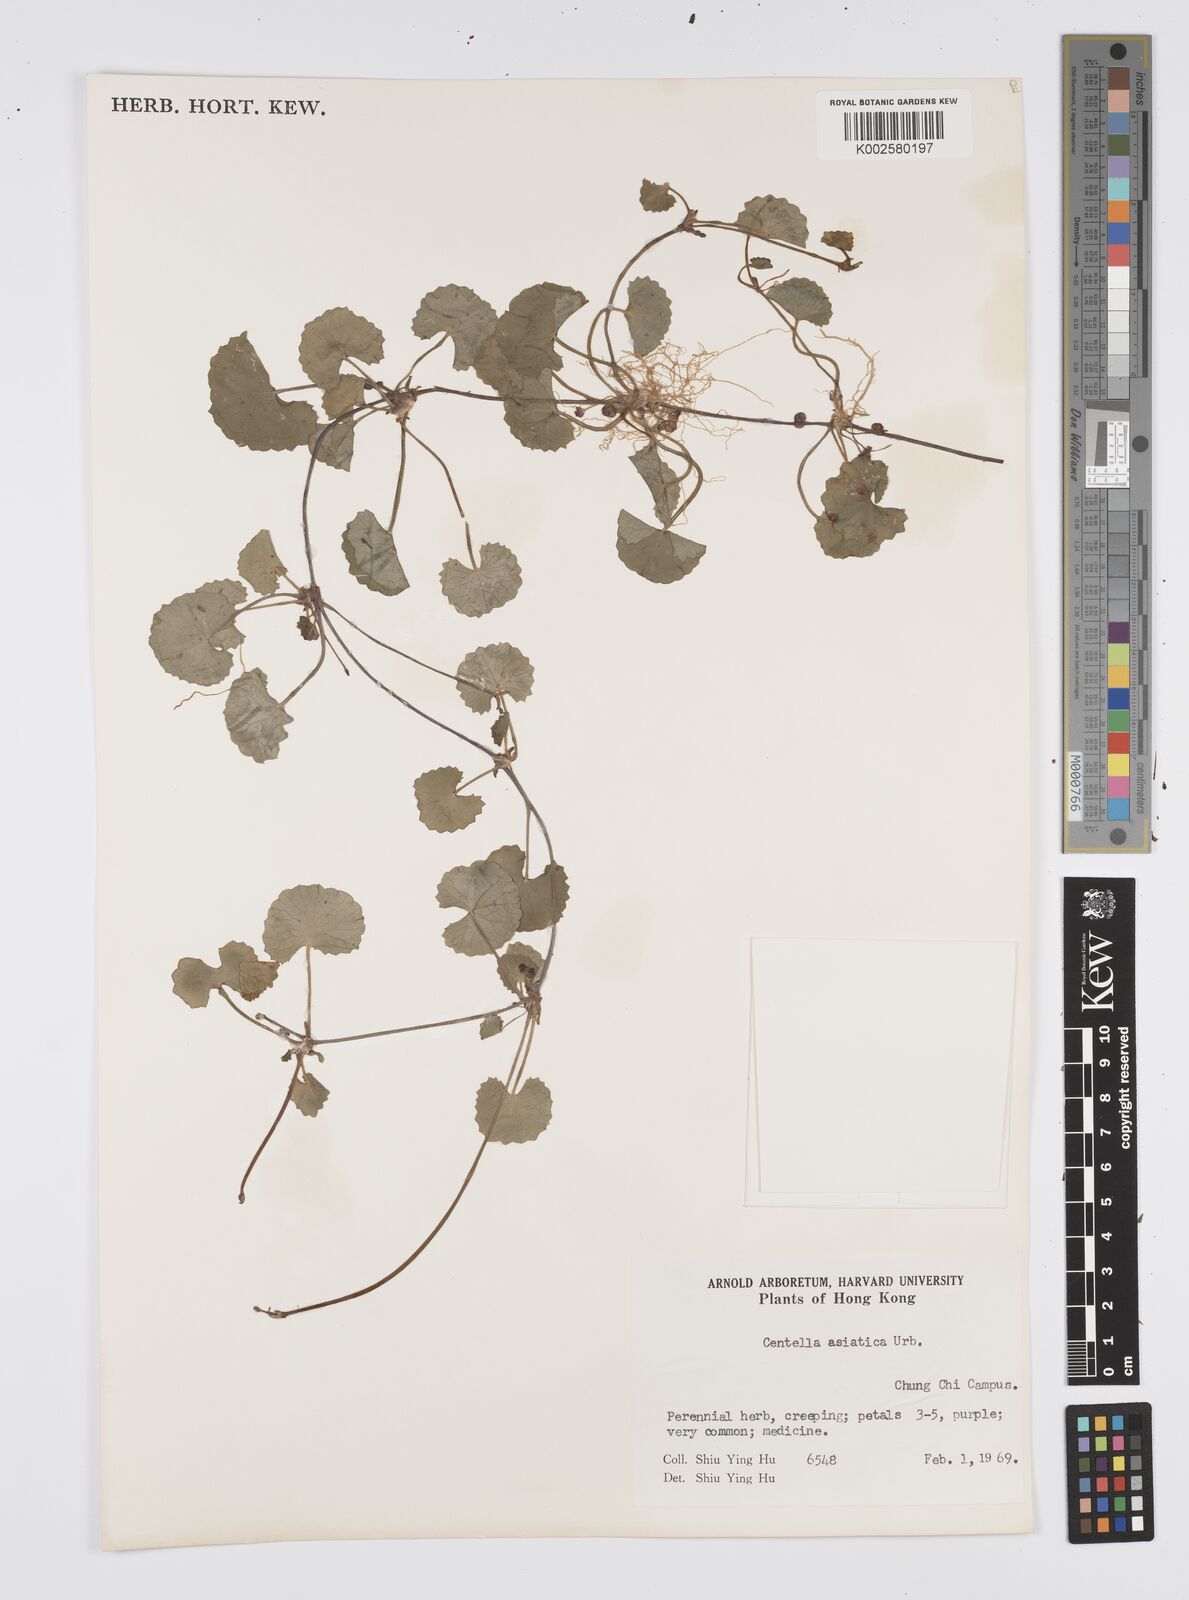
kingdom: Plantae
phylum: Tracheophyta
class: Magnoliopsida
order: Apiales
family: Apiaceae
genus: Centella
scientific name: Centella
